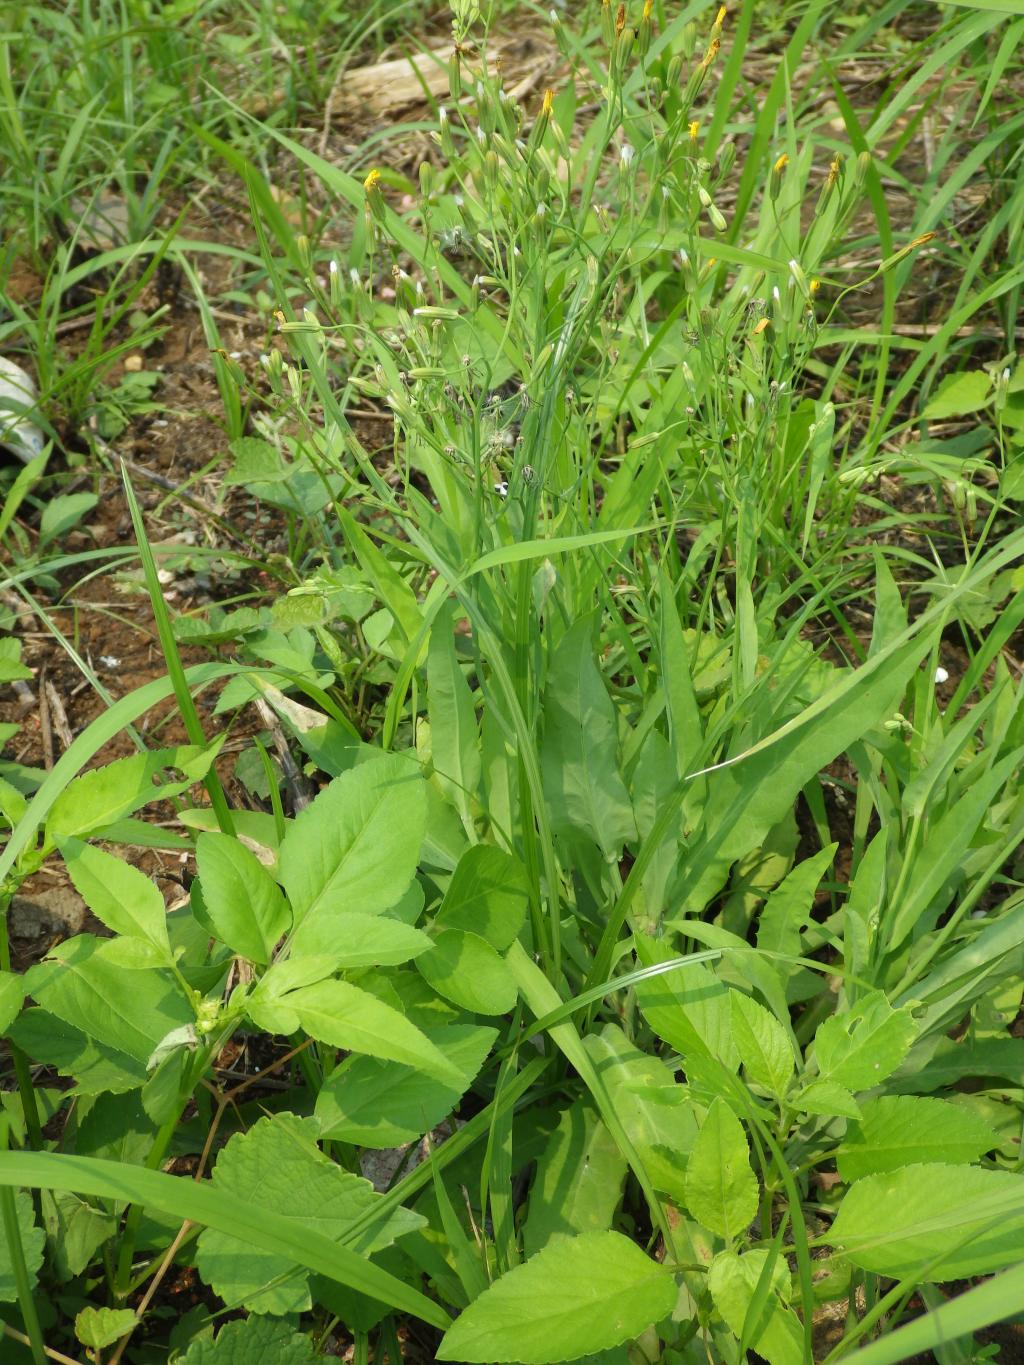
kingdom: Plantae
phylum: Tracheophyta
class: Magnoliopsida
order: Asterales
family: Asteraceae
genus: Ixeris
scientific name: Ixeris chinensis
